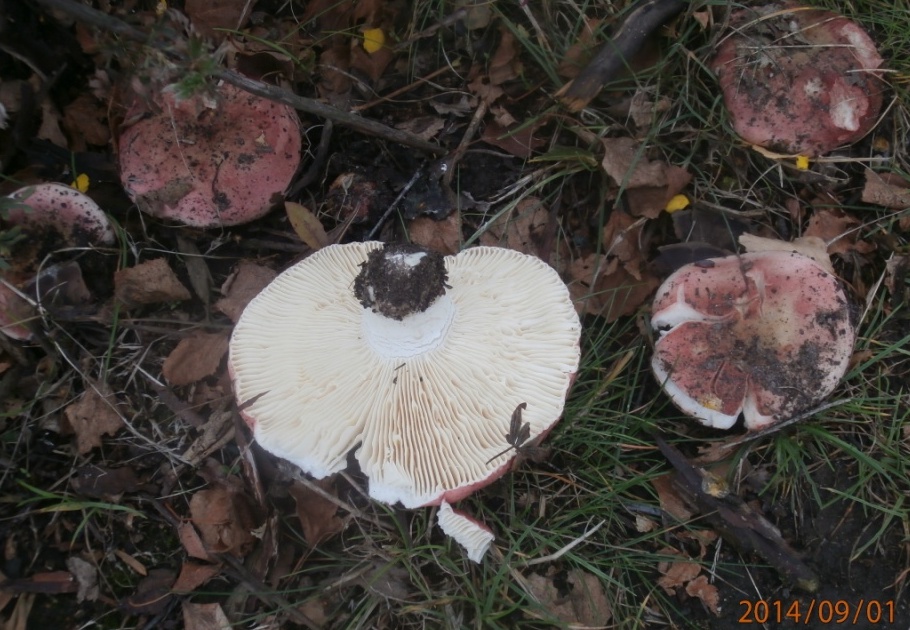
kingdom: Fungi
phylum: Basidiomycota
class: Agaricomycetes
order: Russulales
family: Russulaceae
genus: Russula
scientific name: Russula depallens
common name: falmende skørhat
